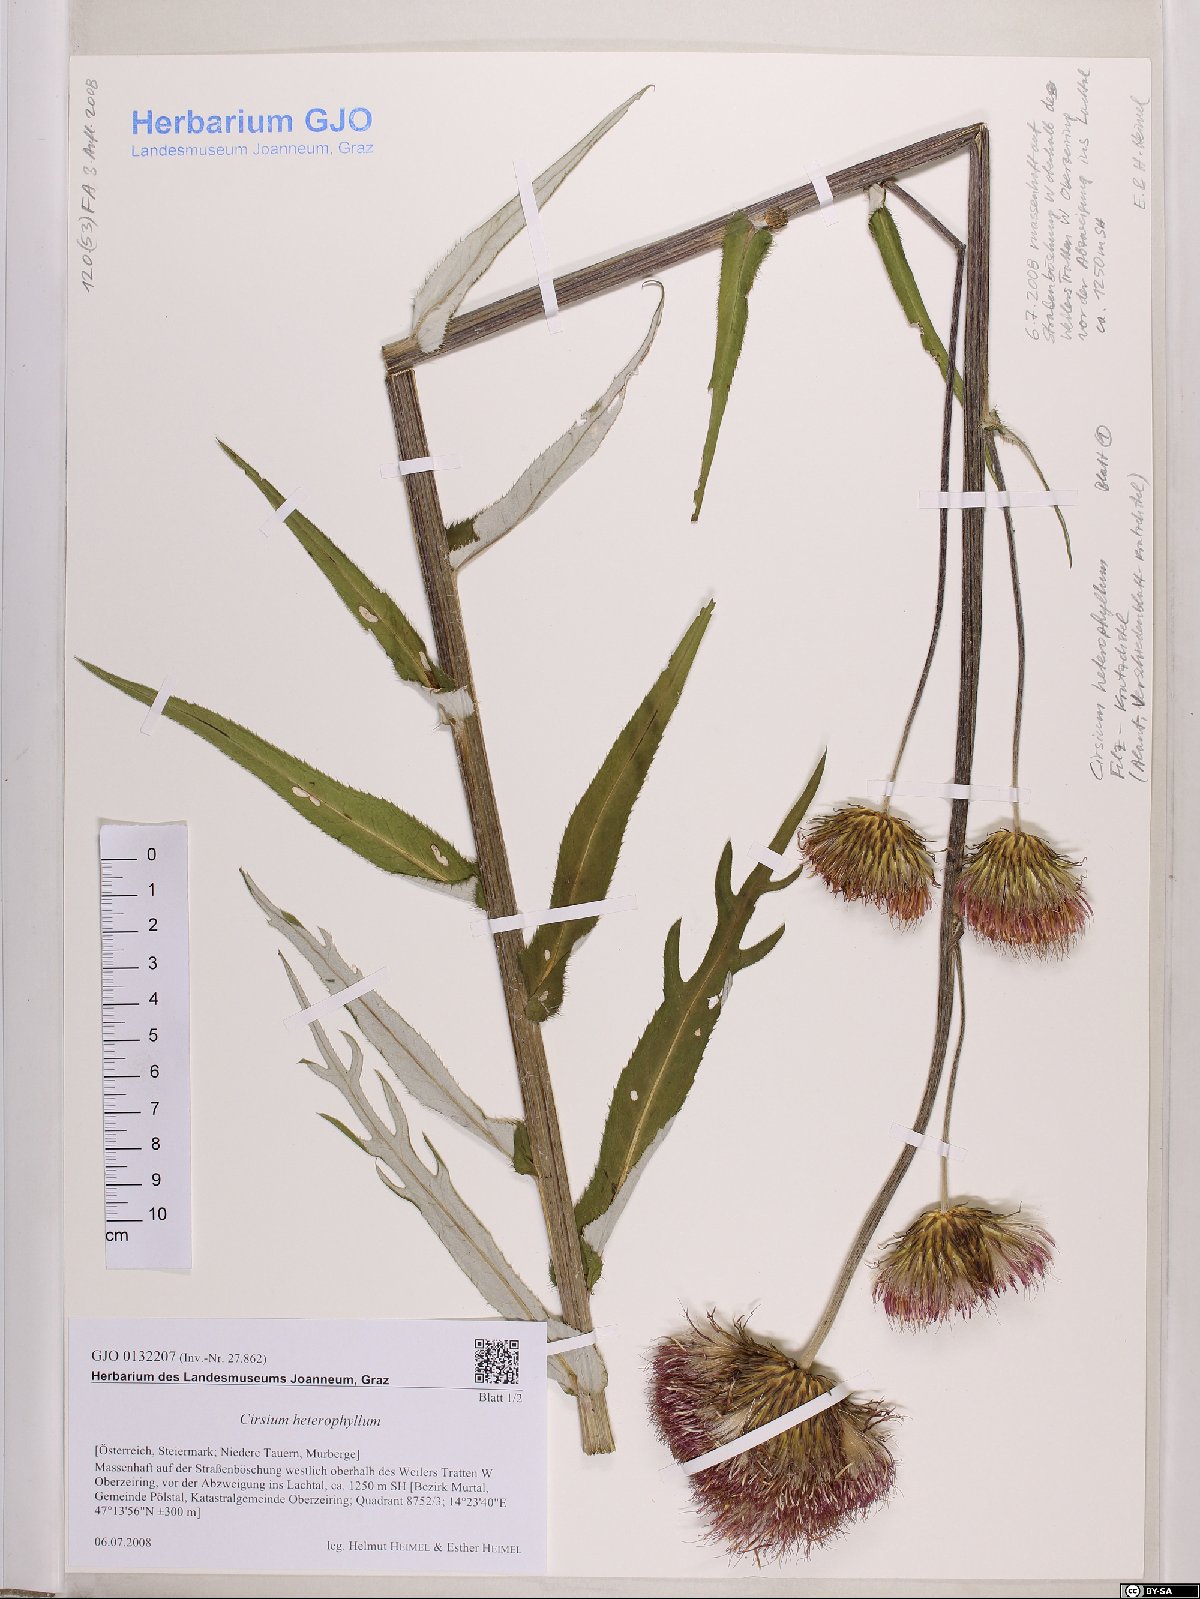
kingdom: Plantae
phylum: Tracheophyta
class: Magnoliopsida
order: Asterales
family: Asteraceae
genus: Cirsium
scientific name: Cirsium heterophyllum
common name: Melancholy thistle
